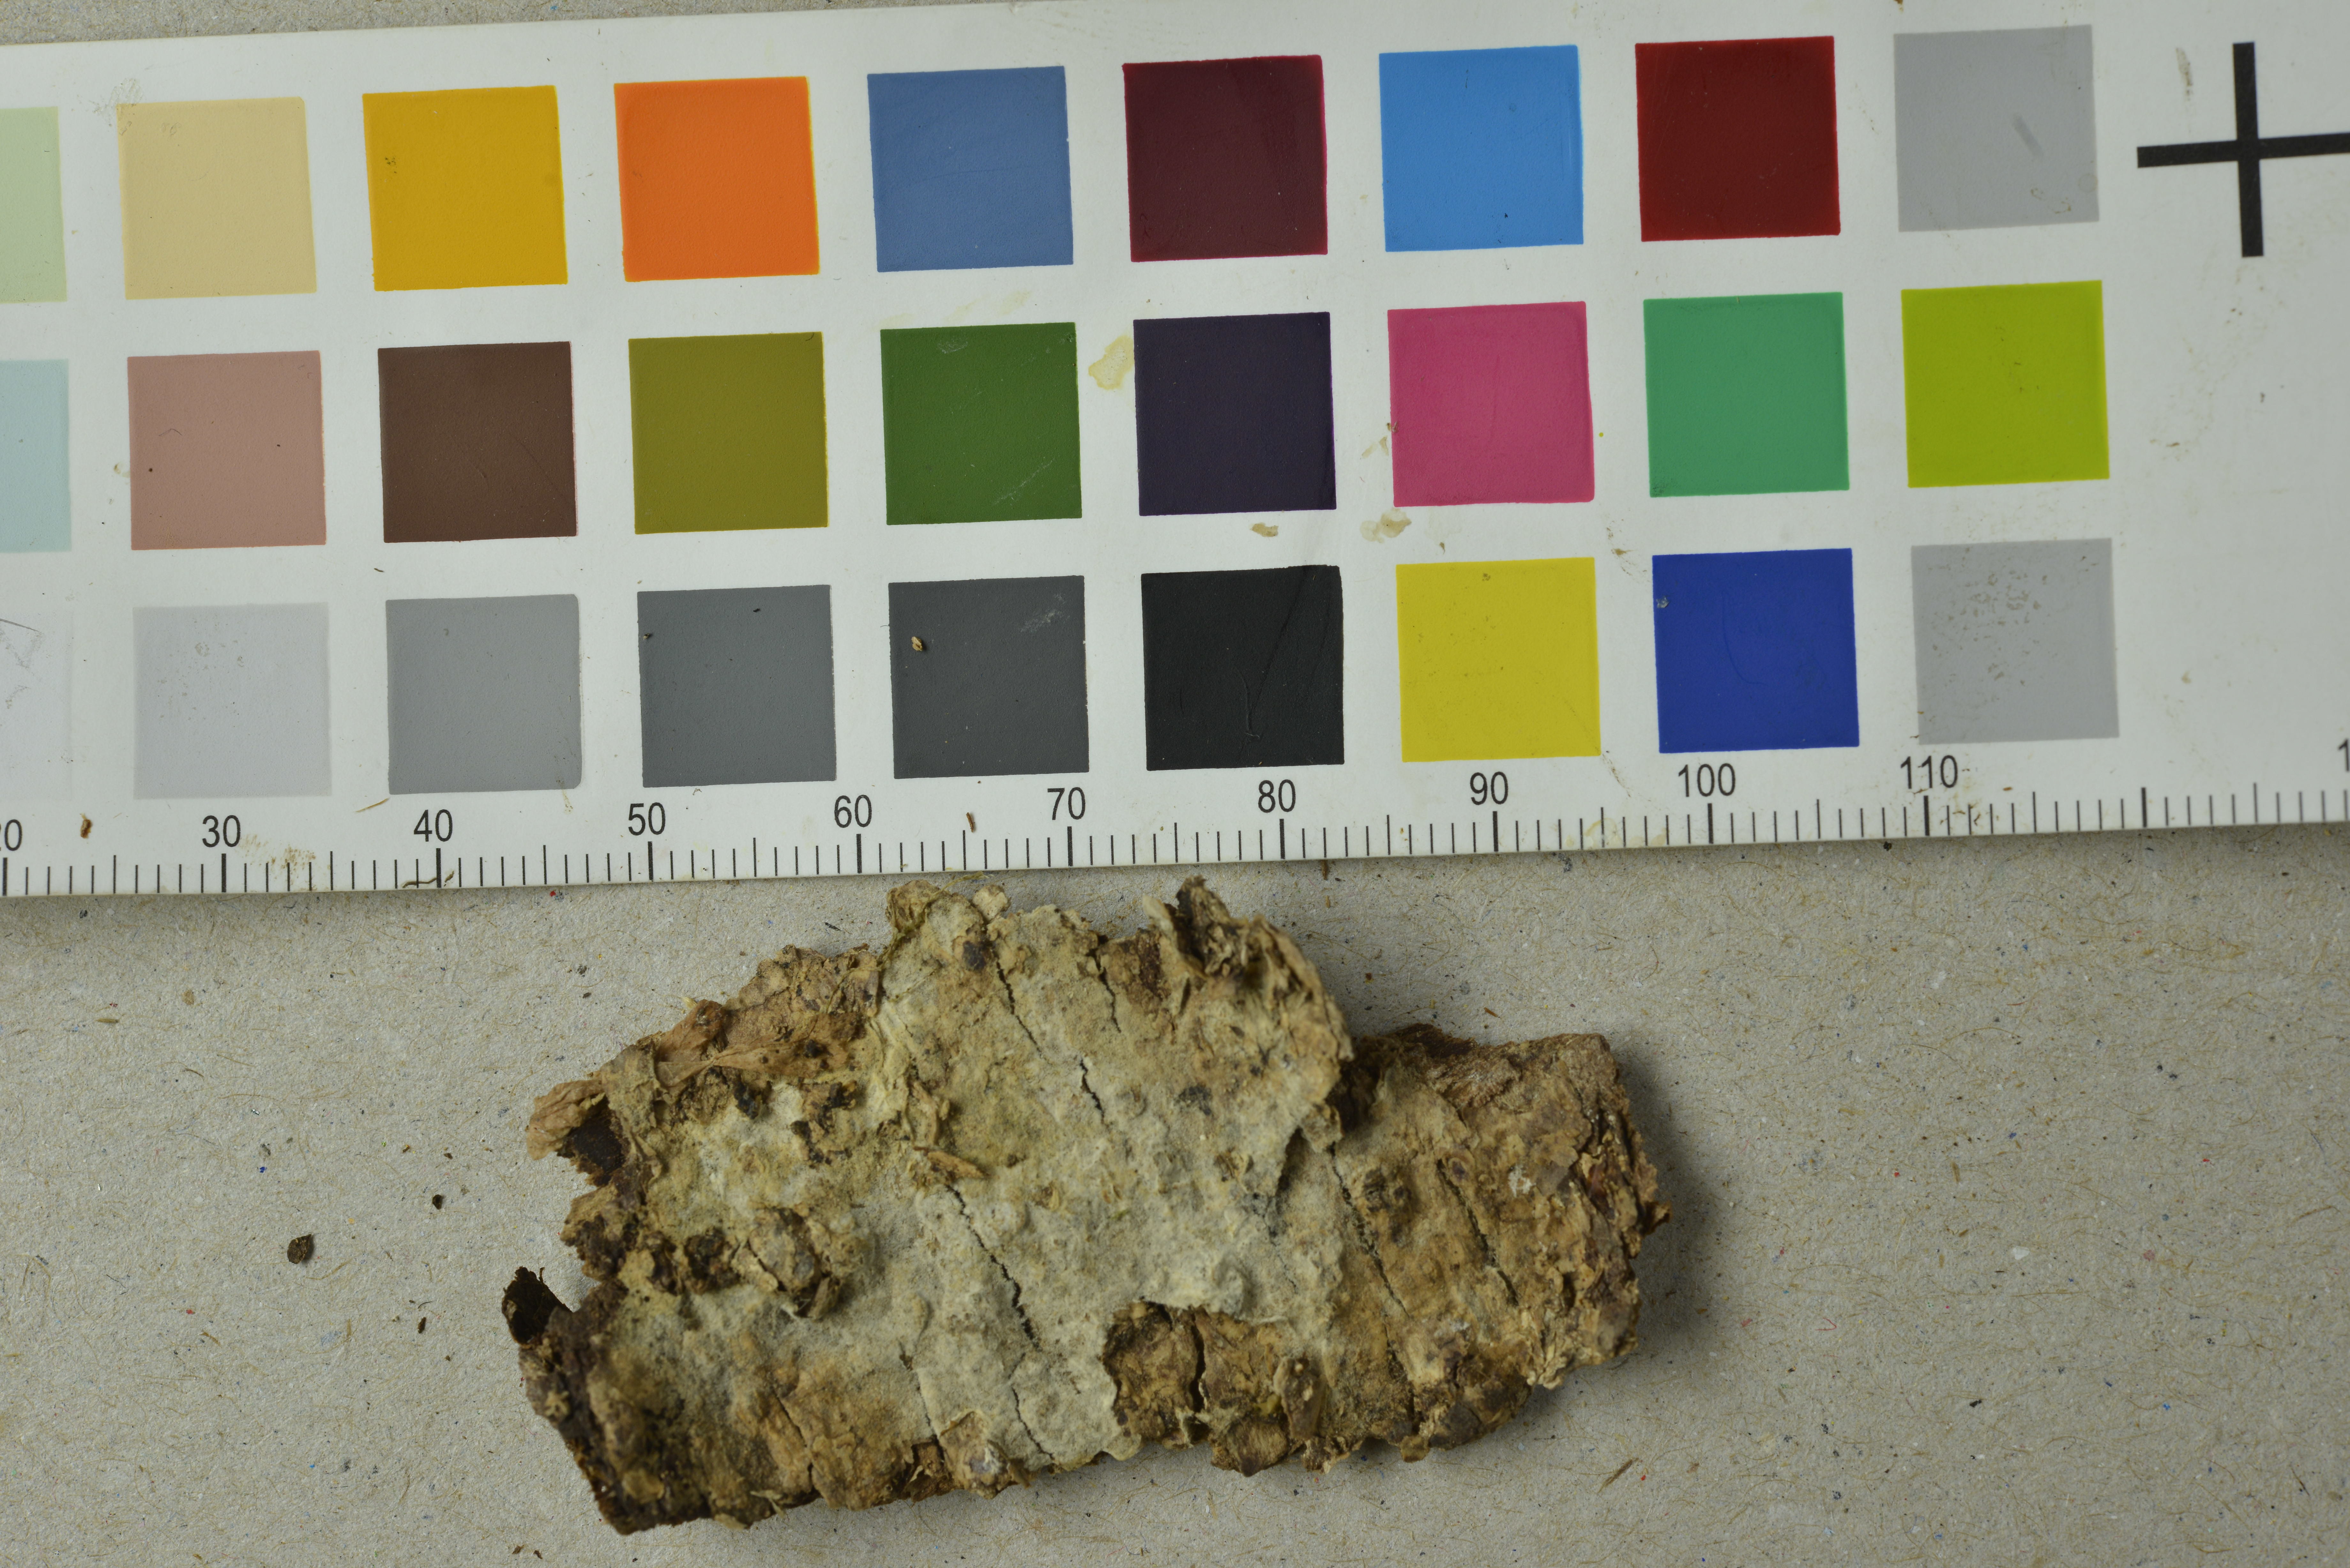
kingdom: Fungi
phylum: Basidiomycota
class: Agaricomycetes
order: Cantharellales
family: Botryobasidiaceae
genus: Botryobasidium
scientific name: Botryobasidium candicans
